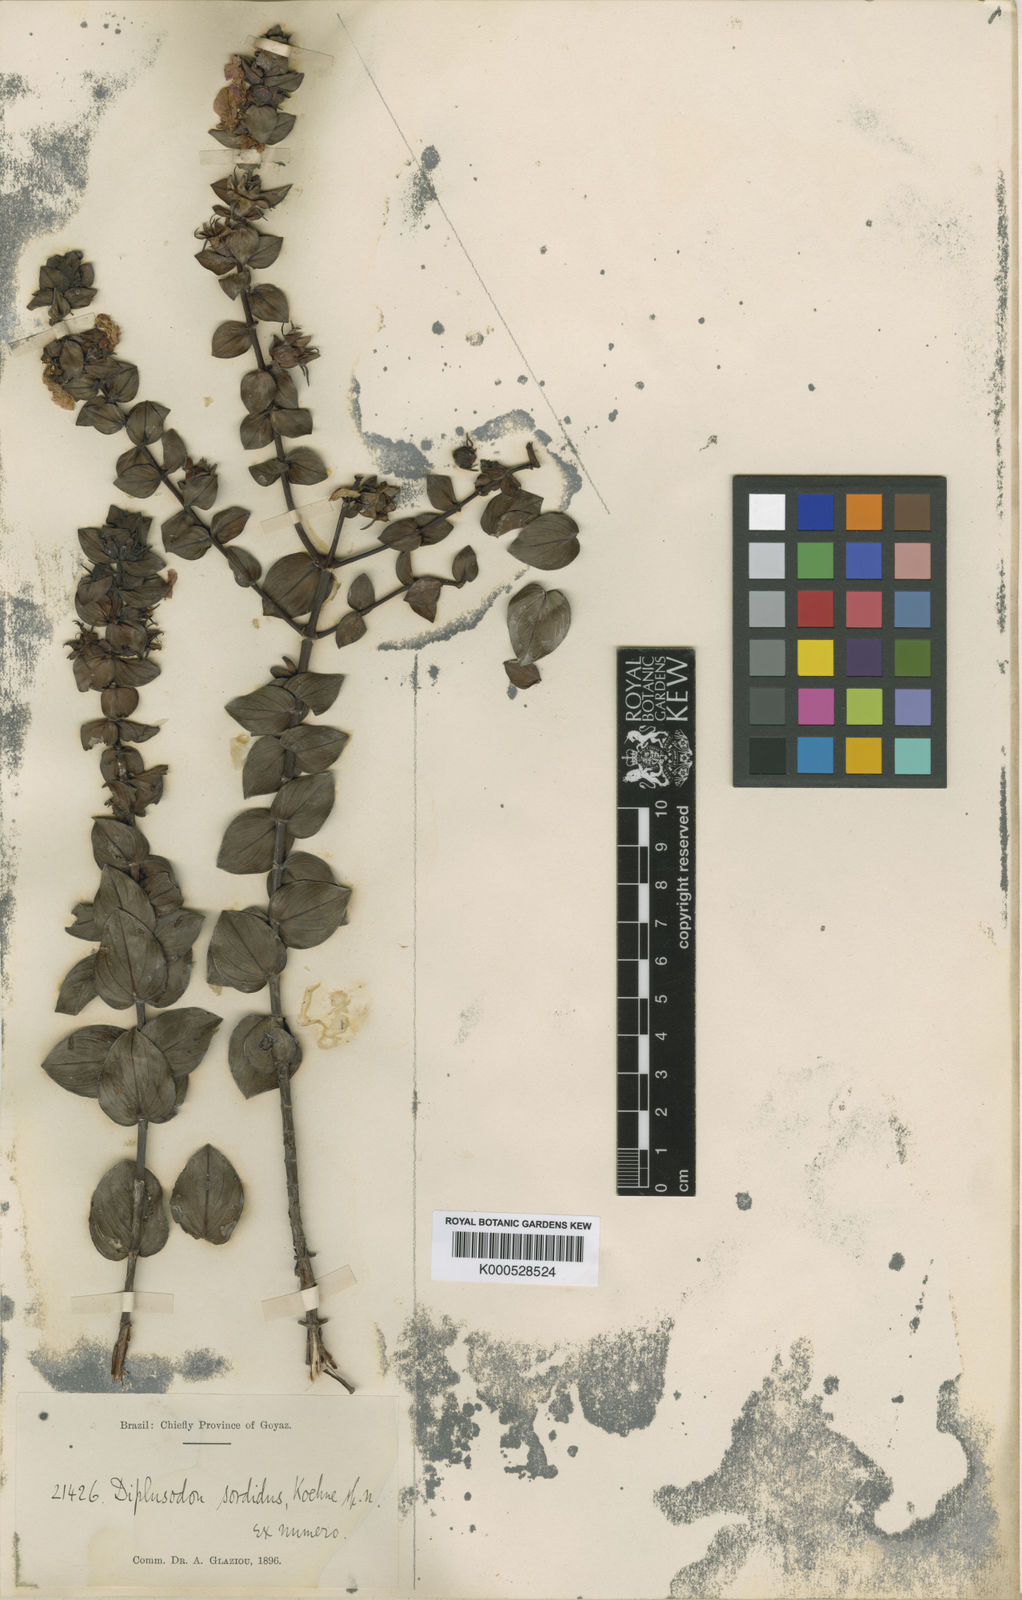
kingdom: Plantae
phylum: Tracheophyta
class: Magnoliopsida
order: Myrtales
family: Lythraceae
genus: Diplusodon
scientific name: Diplusodon sordidus
